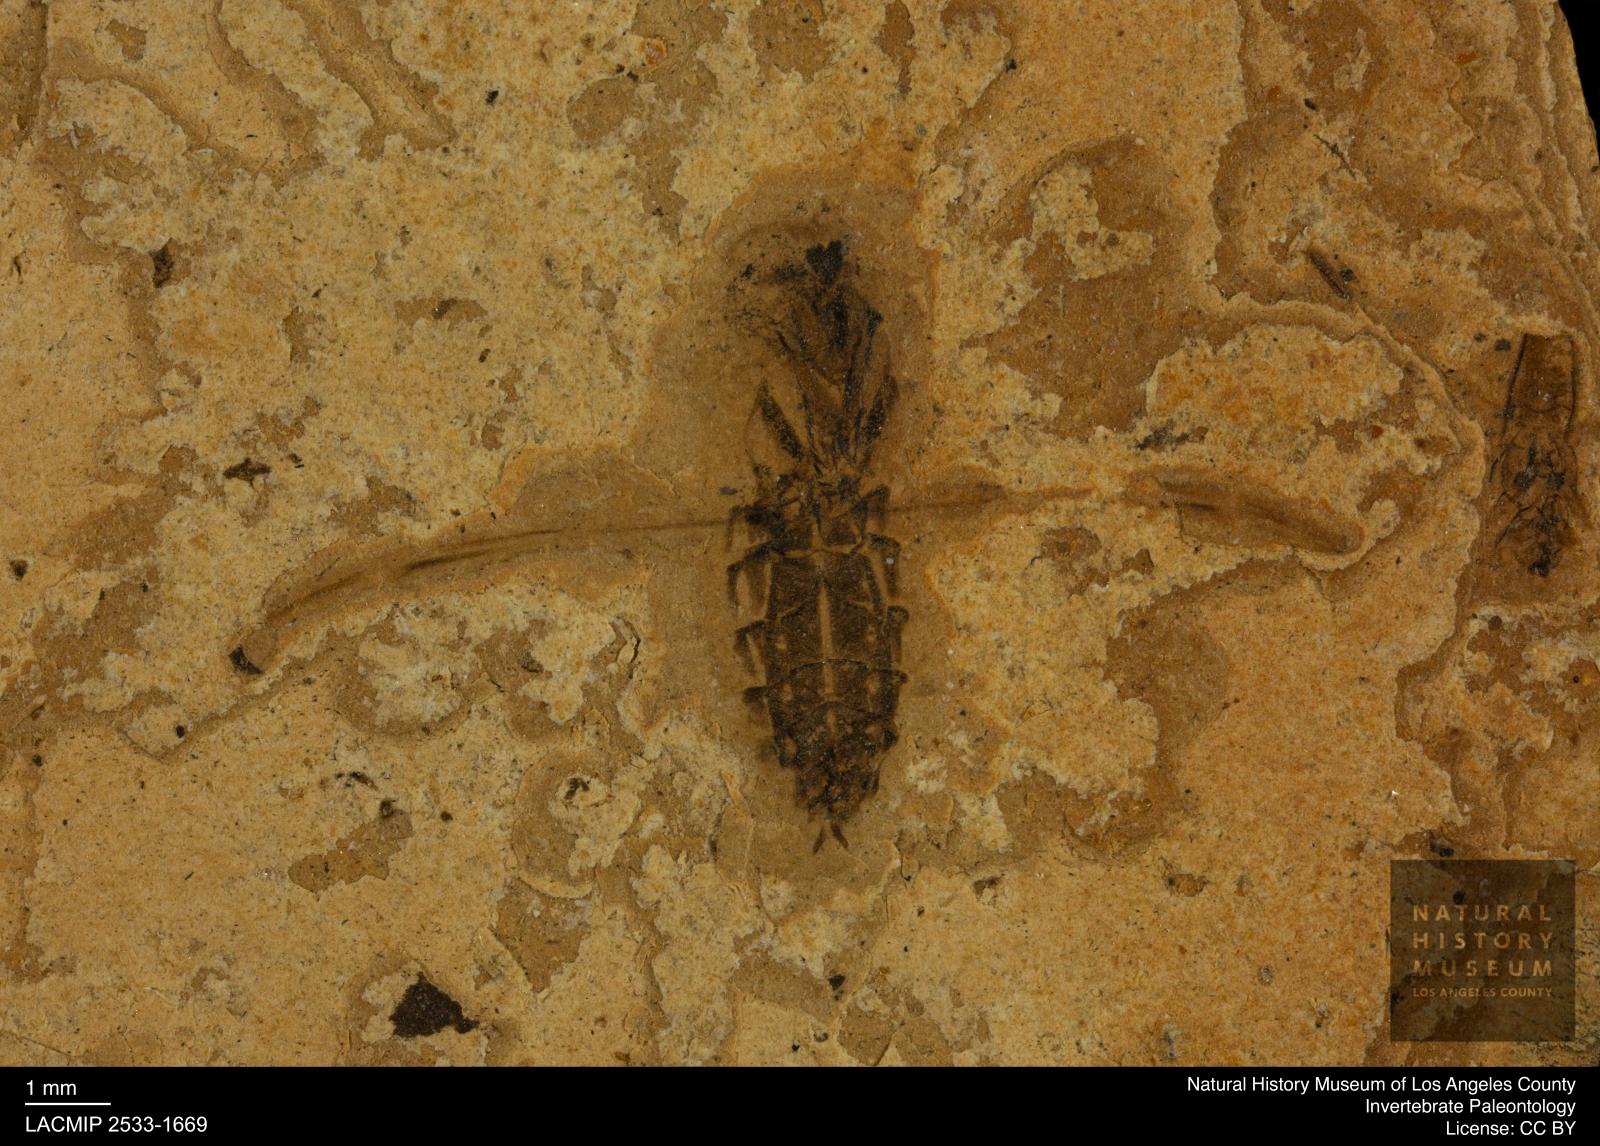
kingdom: Animalia
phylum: Arthropoda
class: Insecta
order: Hemiptera
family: Notonectidae
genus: Notonecta
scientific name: Notonecta
